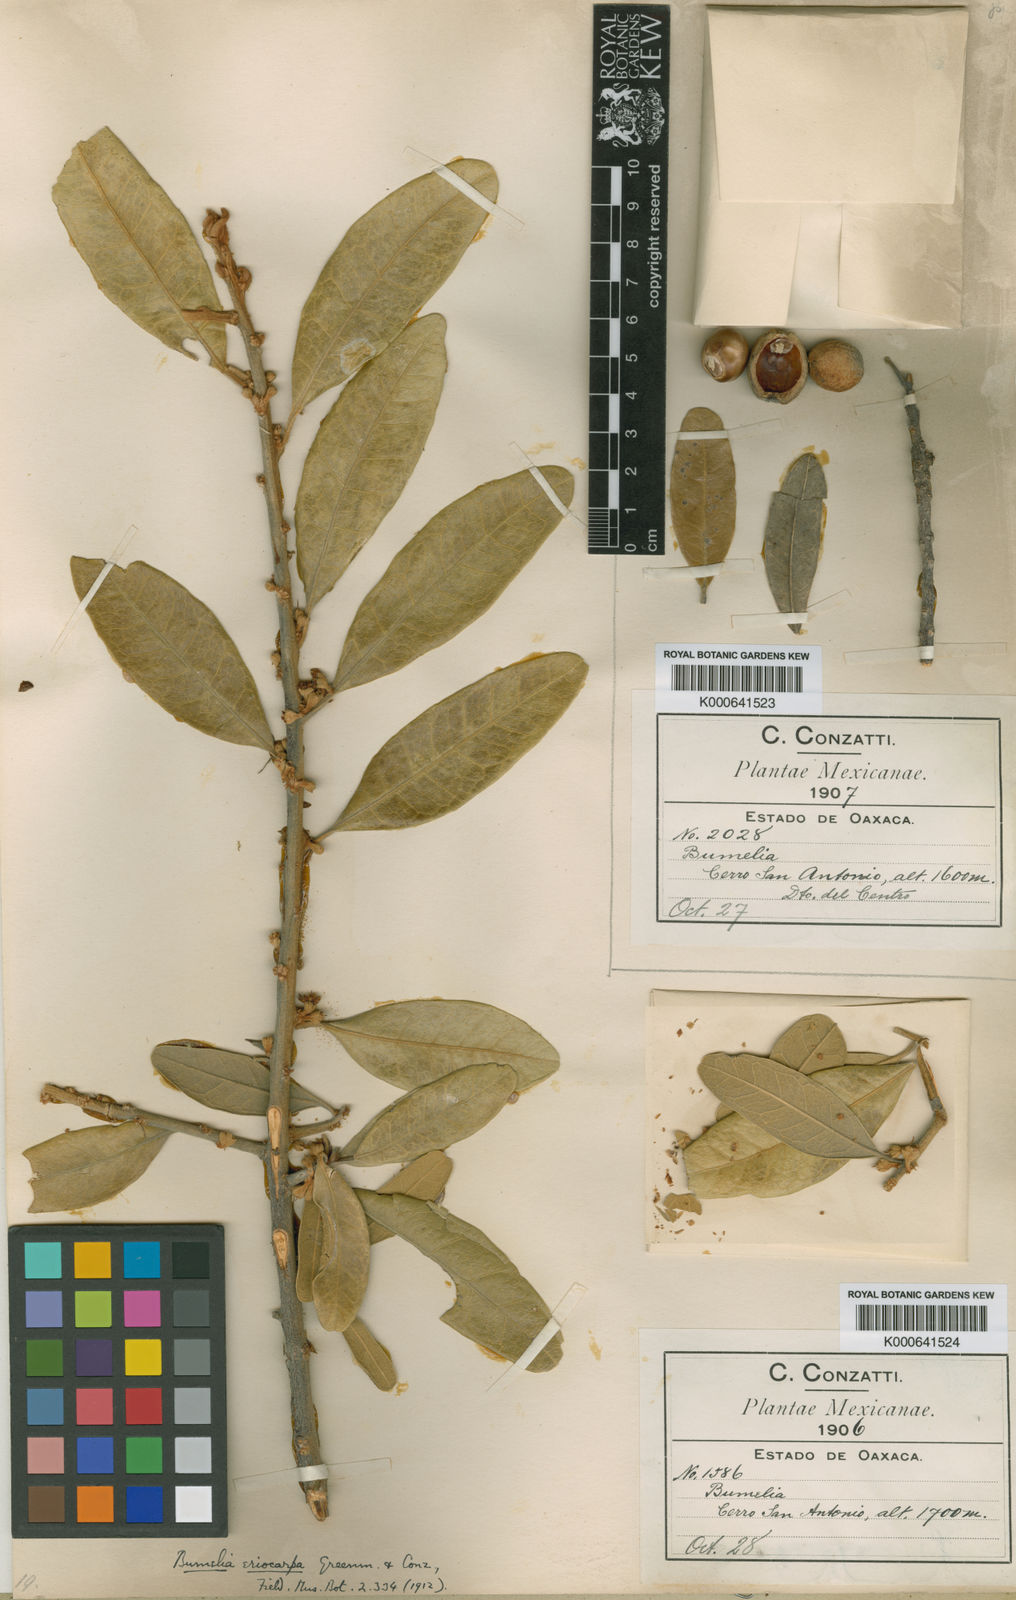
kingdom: Plantae
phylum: Tracheophyta
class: Magnoliopsida
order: Ericales
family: Sapotaceae
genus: Sideroxylon
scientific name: Sideroxylon eriocarpum
